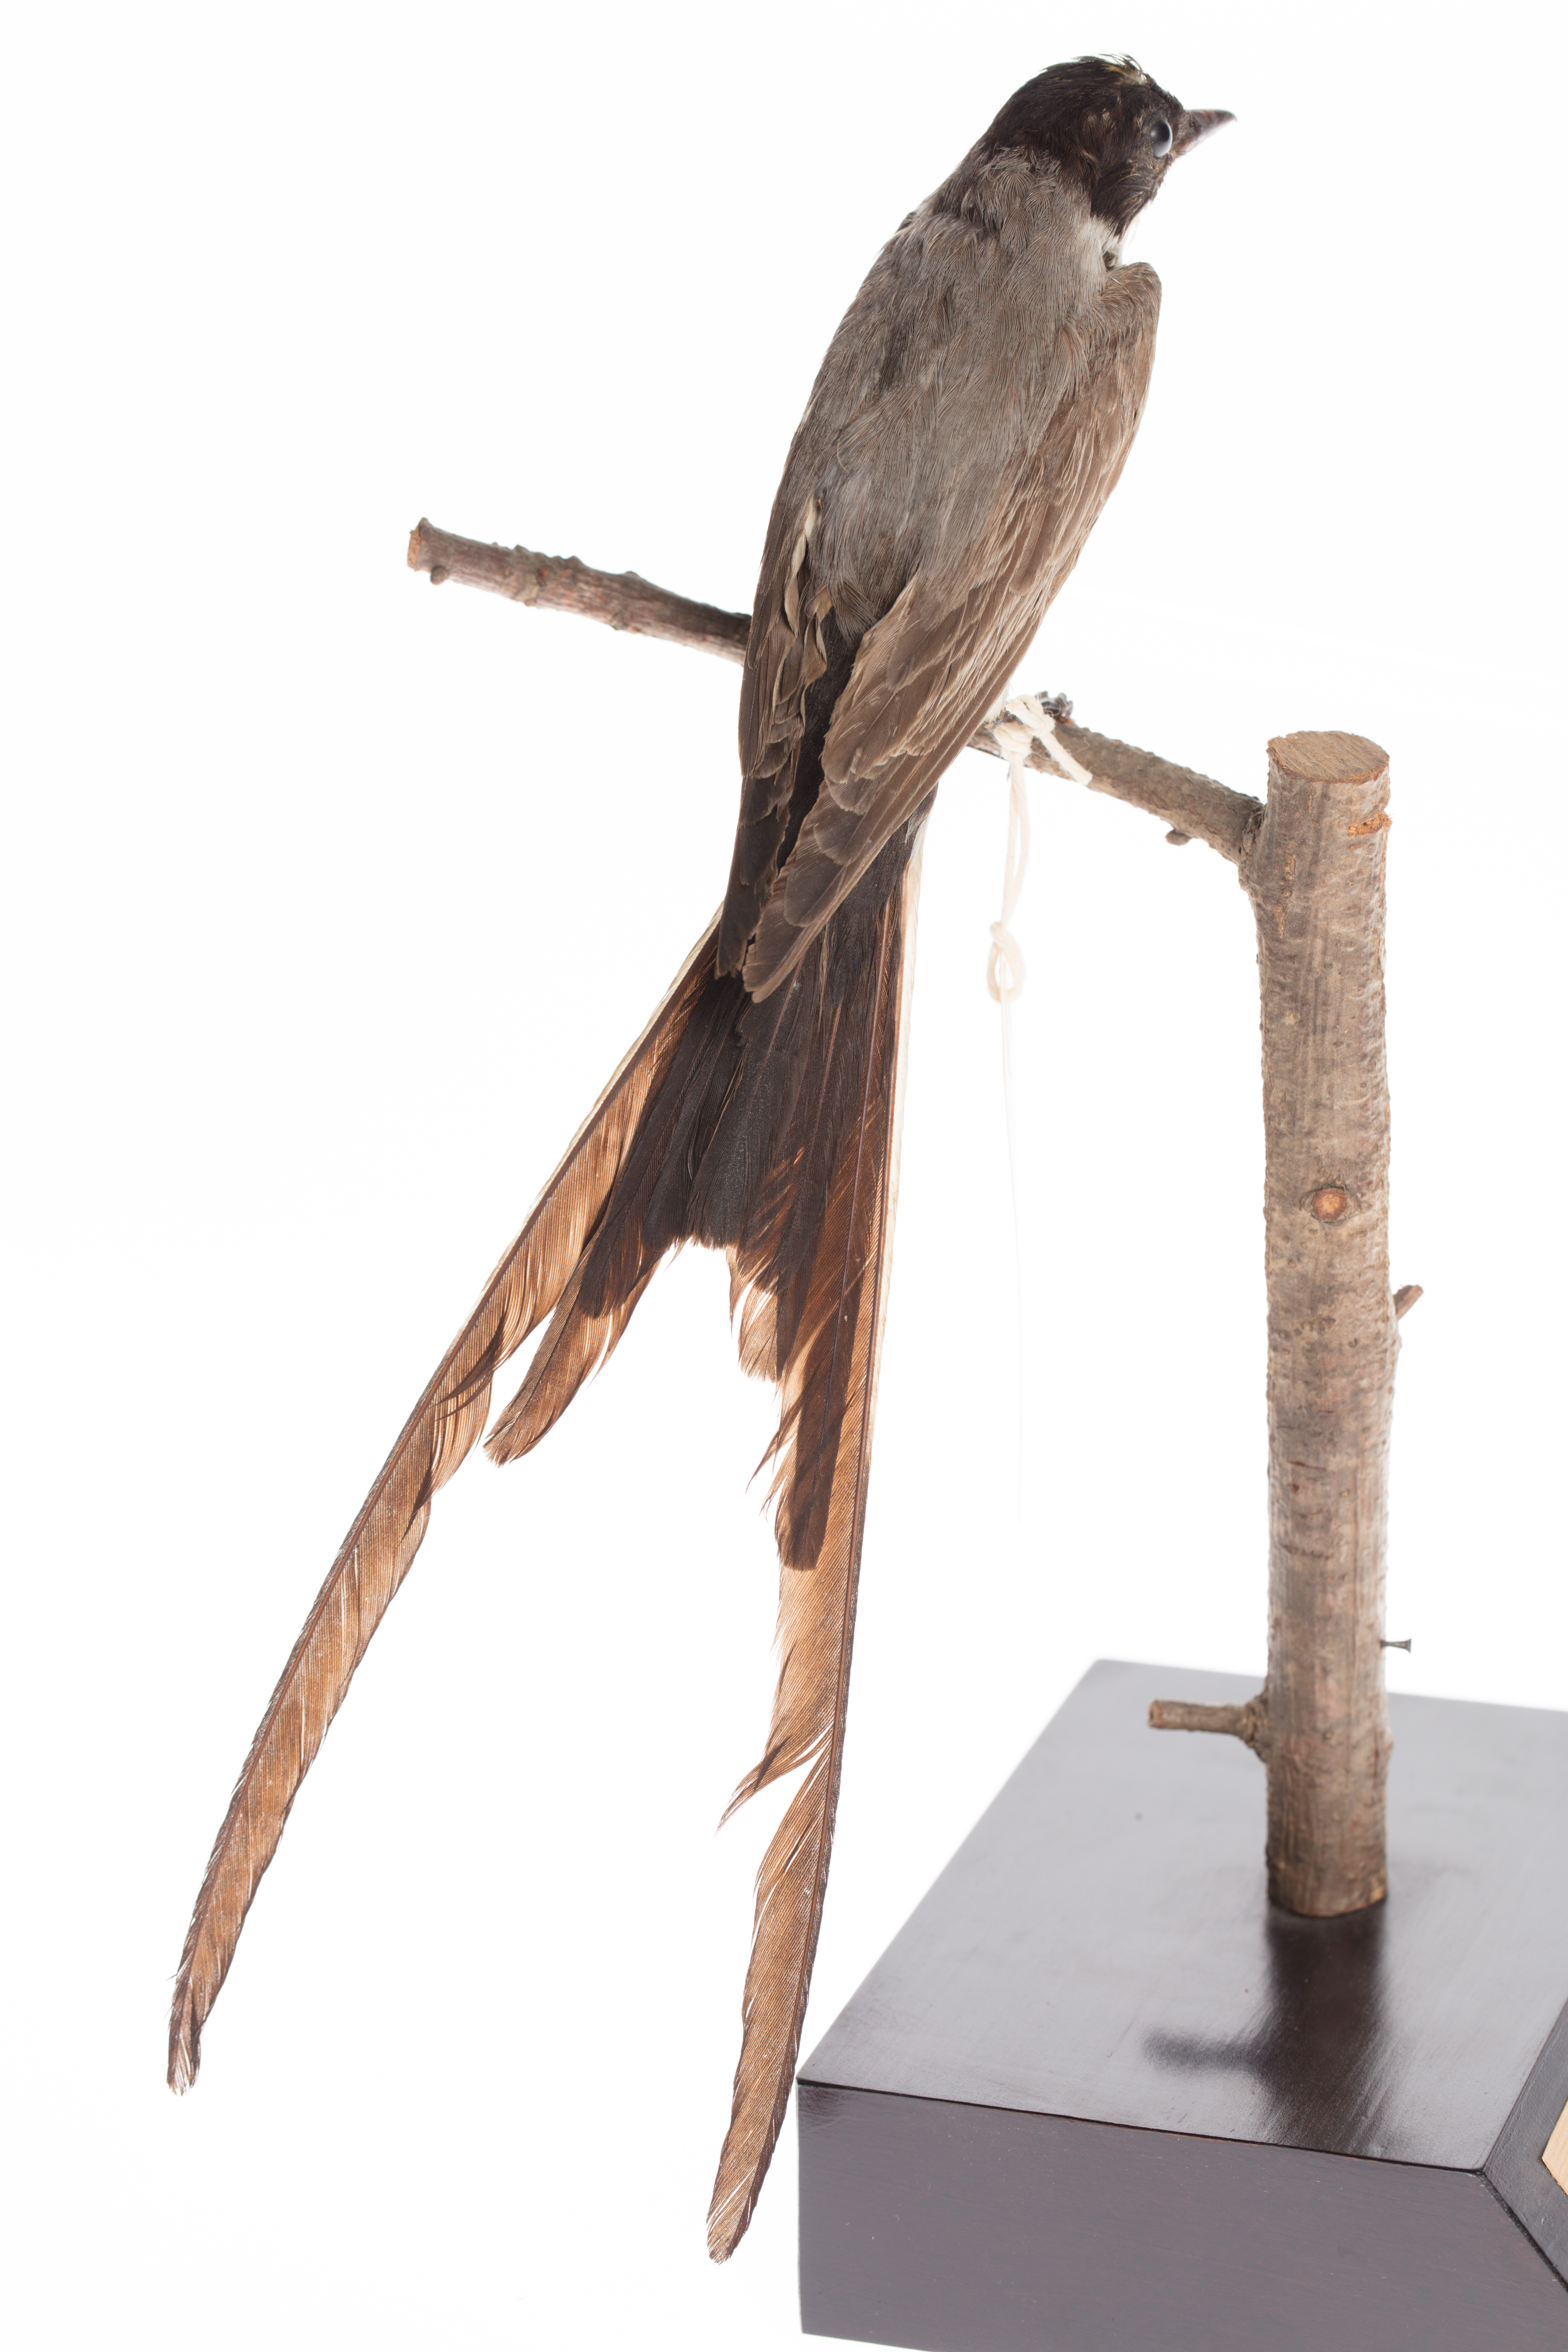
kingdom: Animalia
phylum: Chordata
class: Aves
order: Passeriformes
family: Tyrannidae
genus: Tyrannus
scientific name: Tyrannus savana
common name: Fork-tailed flycatcher
